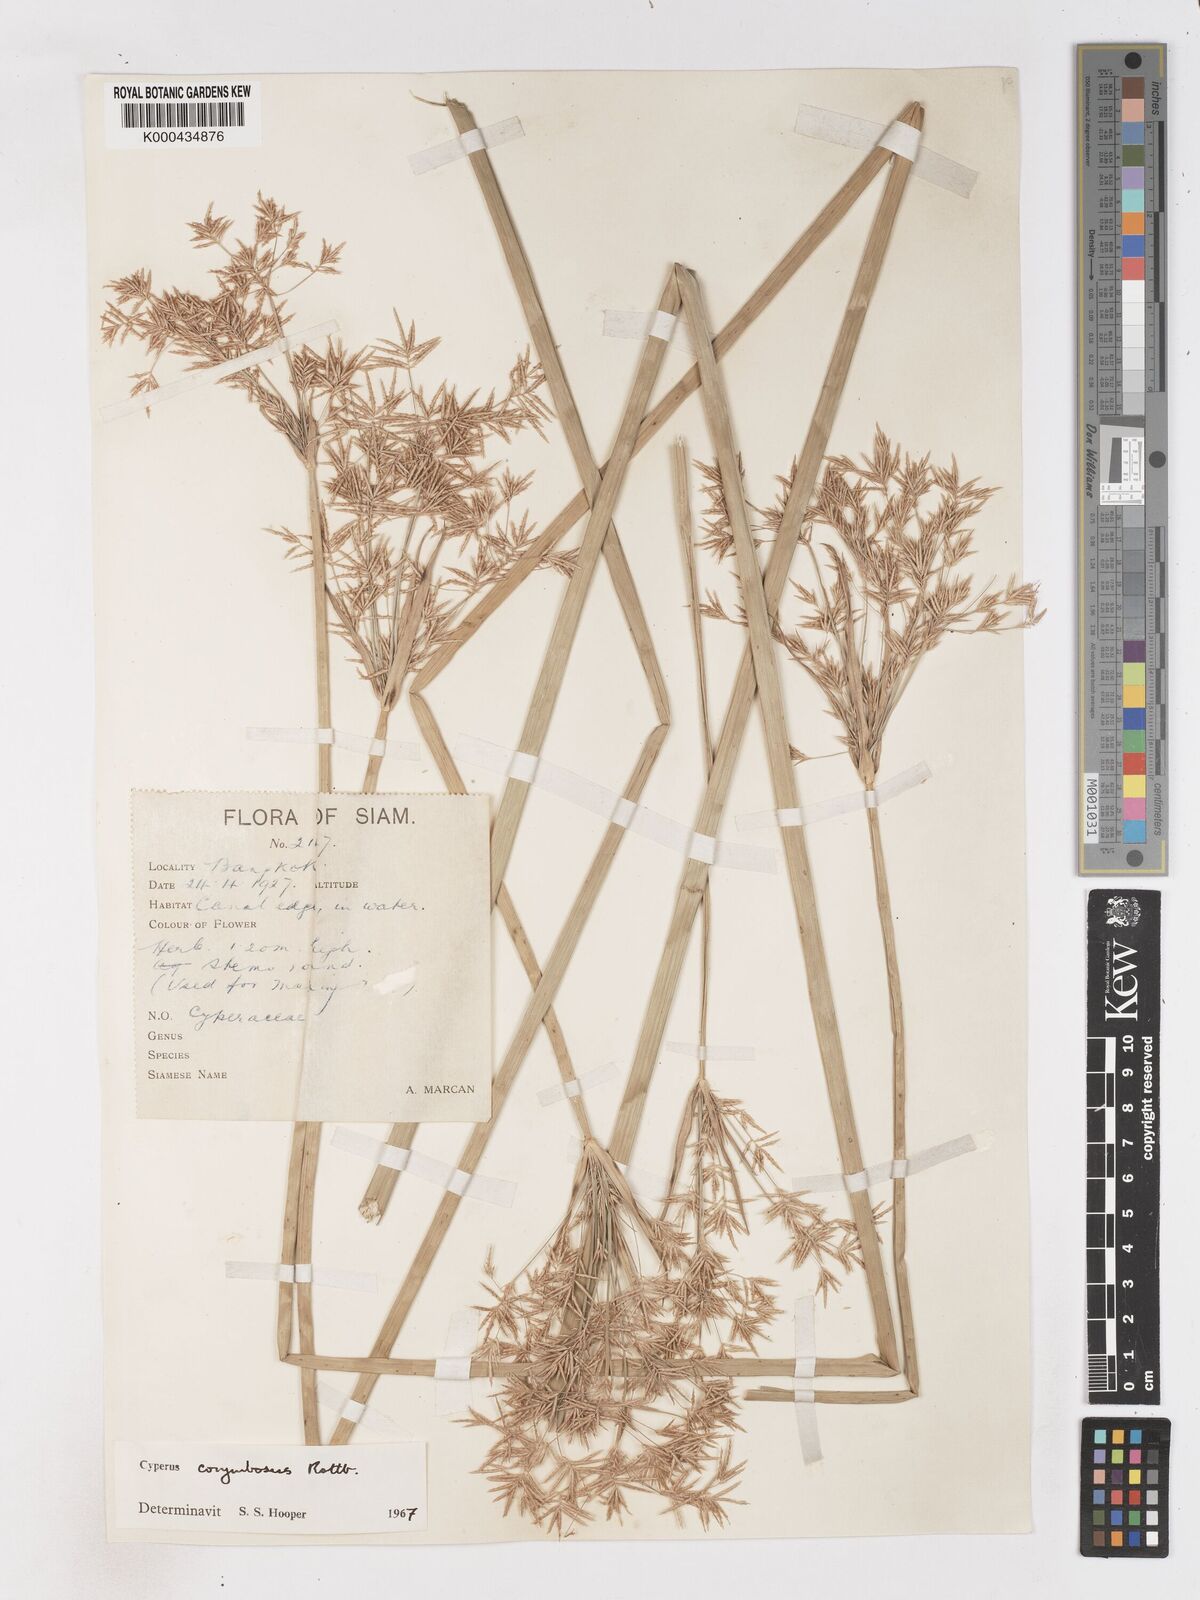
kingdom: Plantae
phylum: Tracheophyta
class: Liliopsida
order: Poales
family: Cyperaceae
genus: Cyperus
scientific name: Cyperus corymbosus
